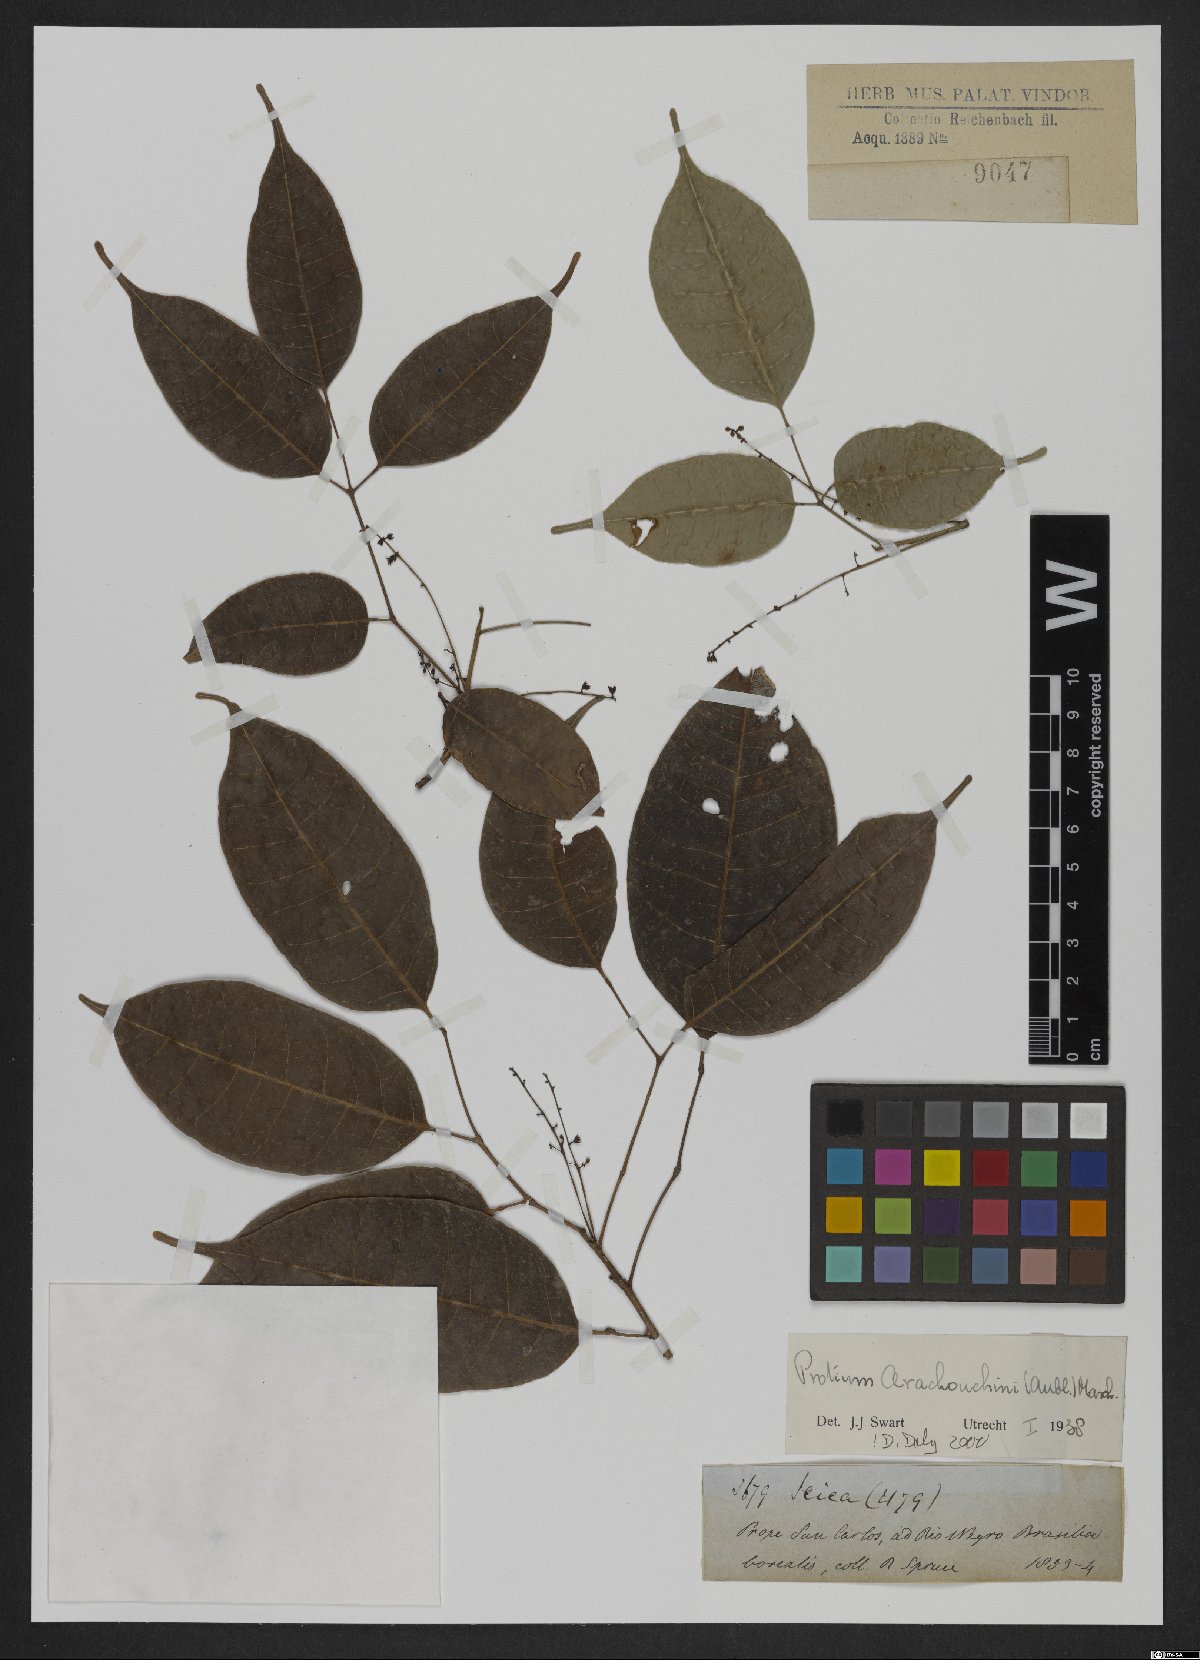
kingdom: Plantae
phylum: Tracheophyta
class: Magnoliopsida
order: Sapindales
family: Burseraceae
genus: Protium
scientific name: Protium calanense
